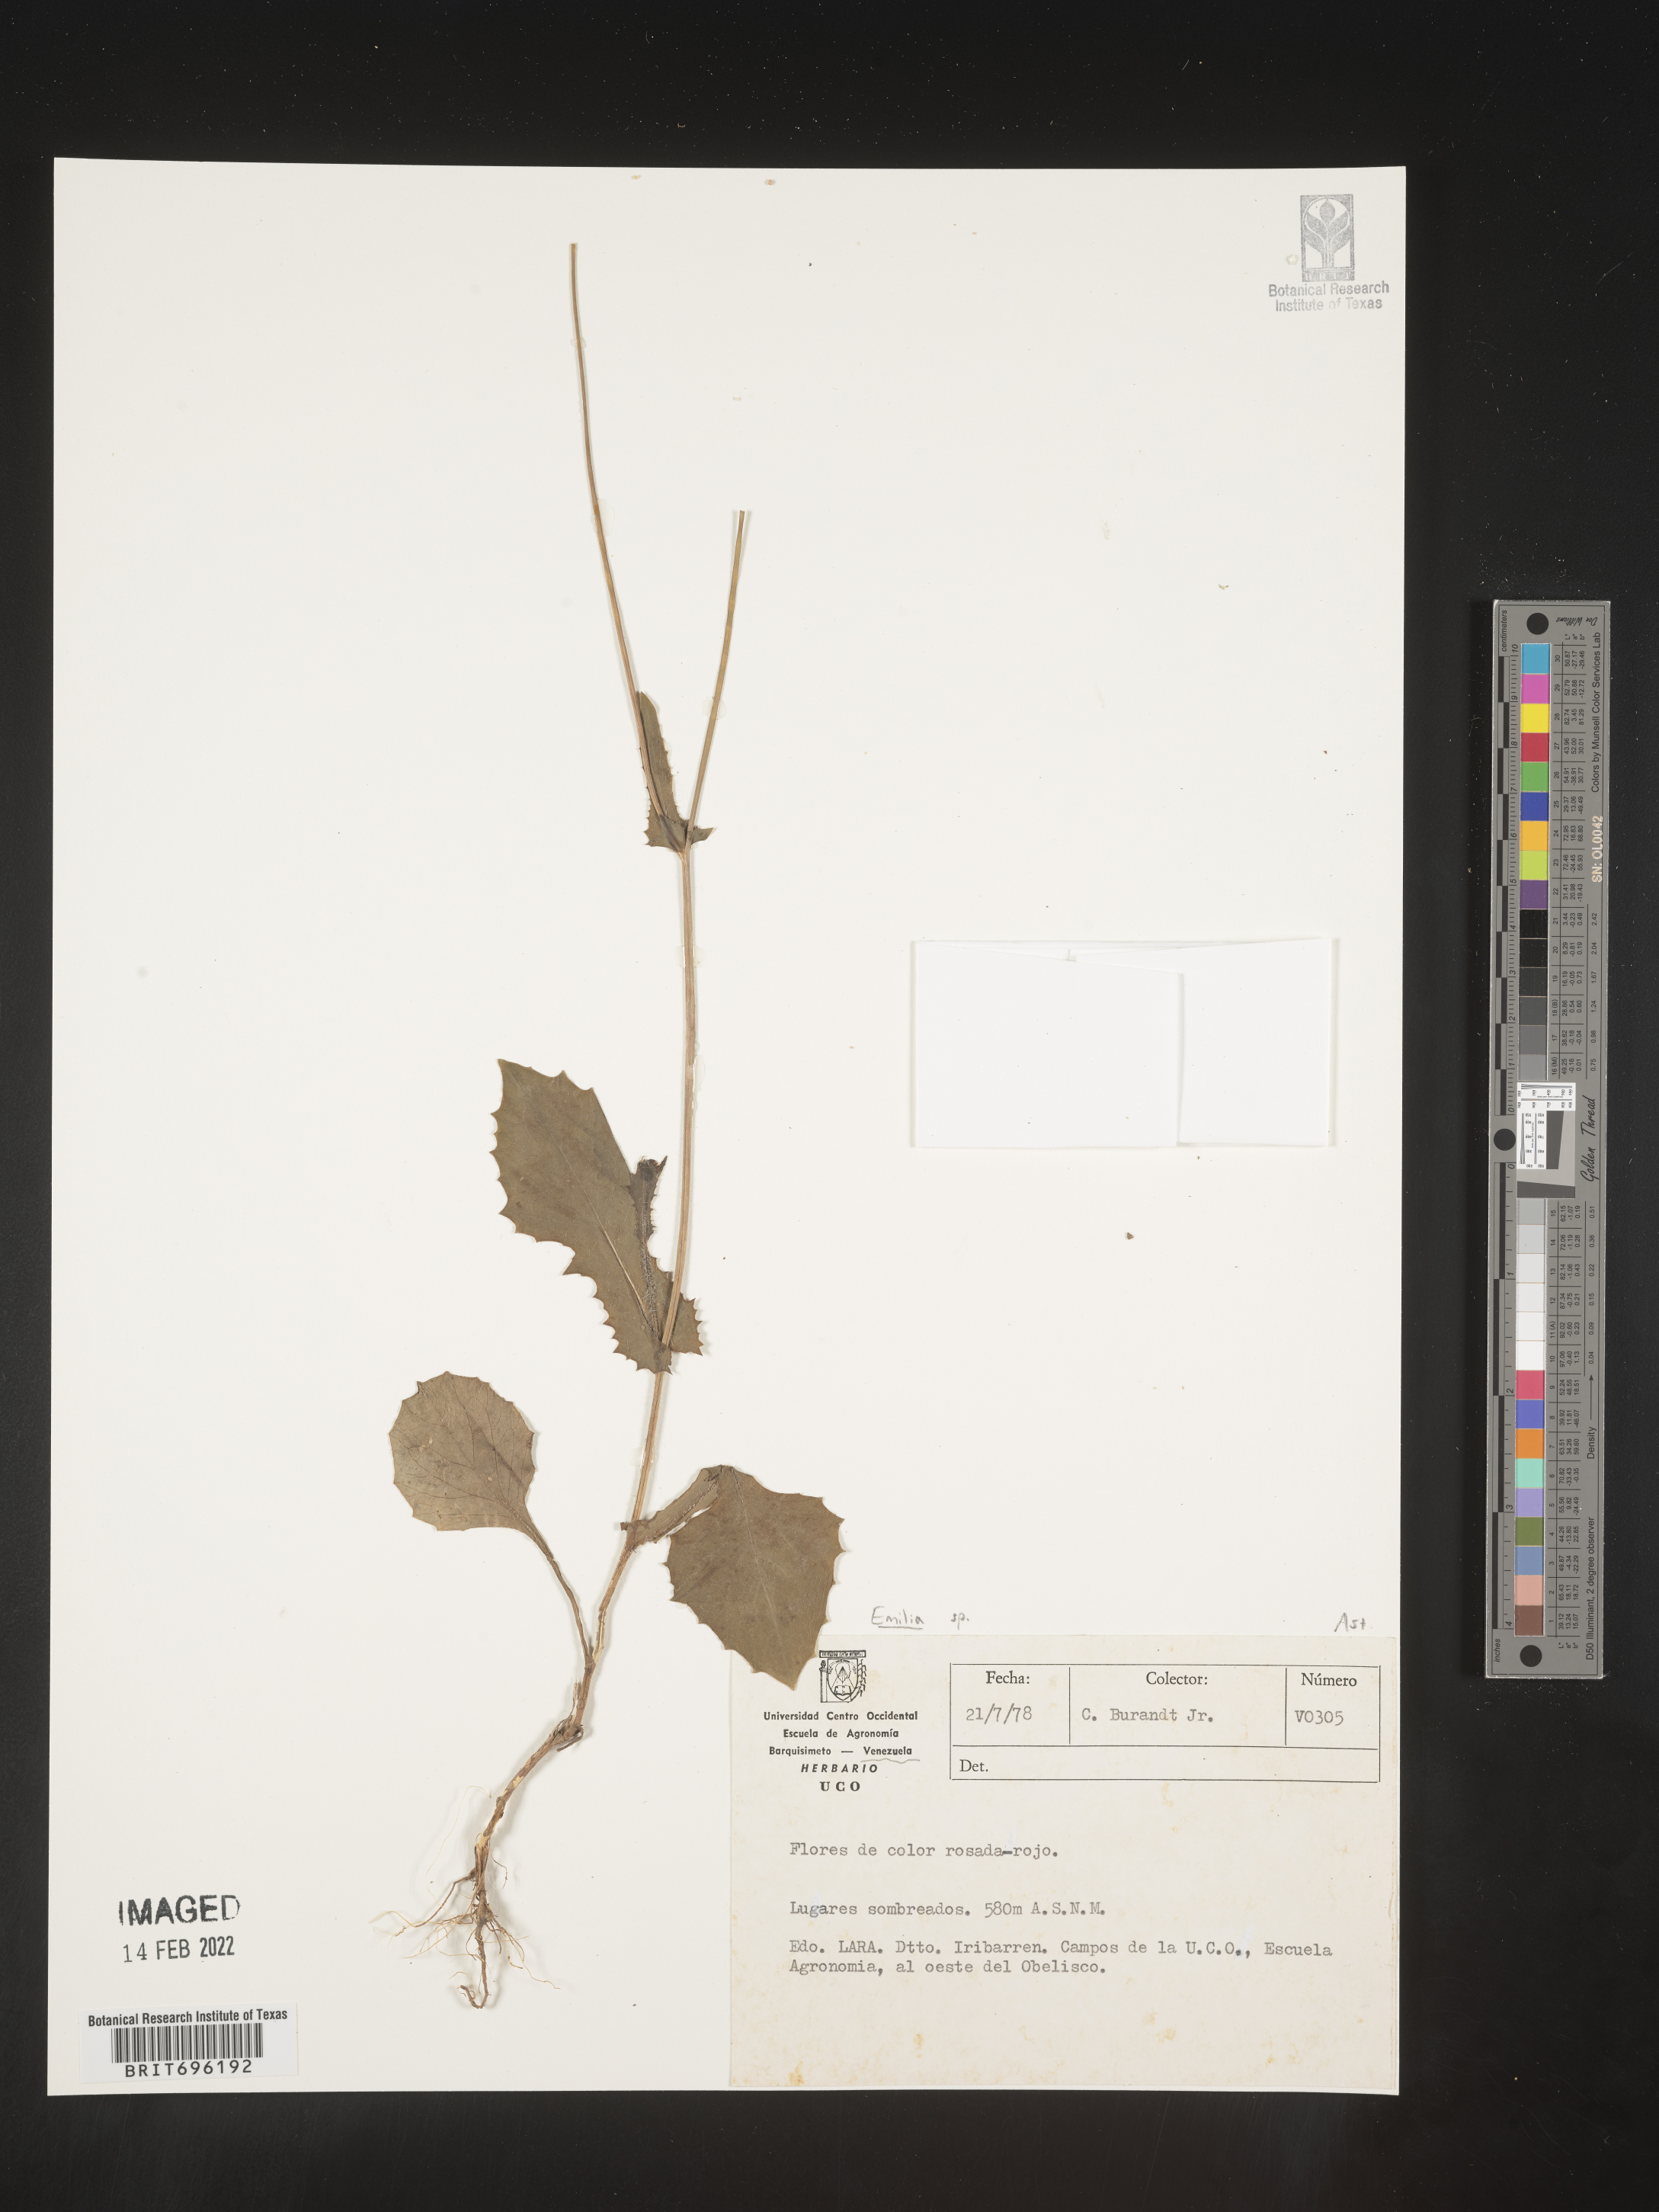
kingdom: Plantae
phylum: Tracheophyta
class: Magnoliopsida
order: Asterales
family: Asteraceae
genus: Emilia
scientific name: Emilia
